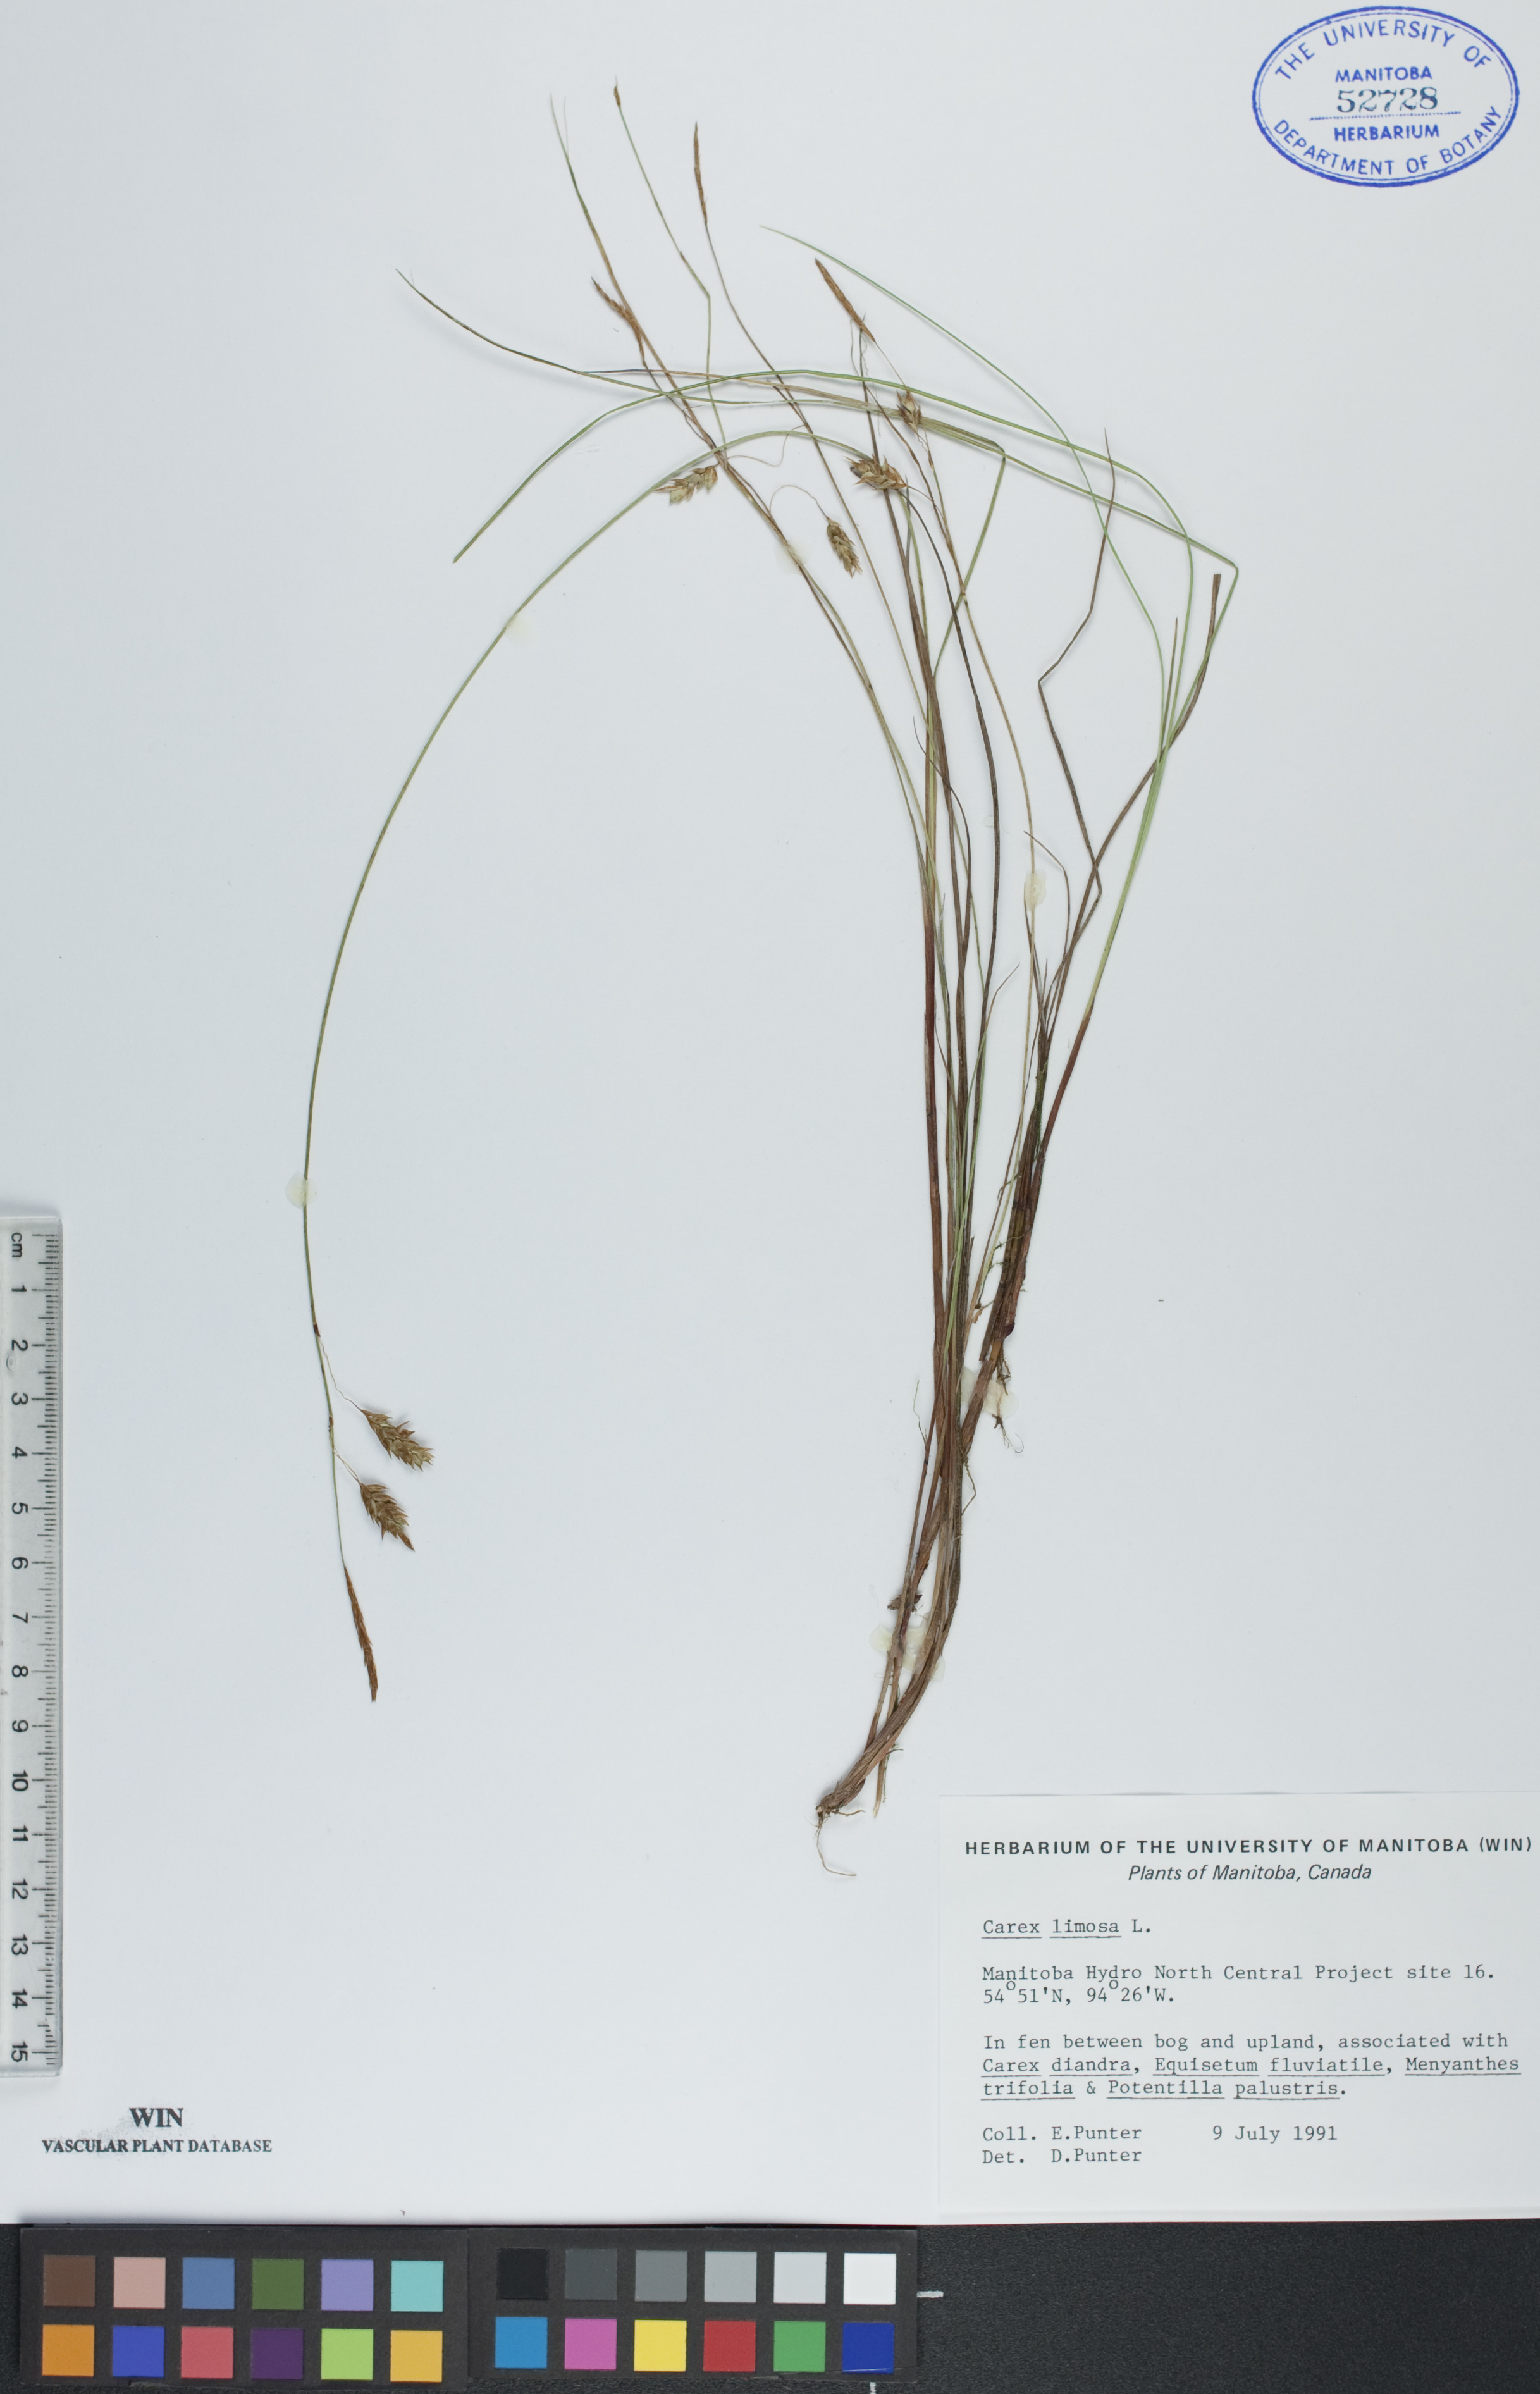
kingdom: Plantae
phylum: Tracheophyta
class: Liliopsida
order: Poales
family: Cyperaceae
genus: Carex
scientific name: Carex limosa
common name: Bog sedge
